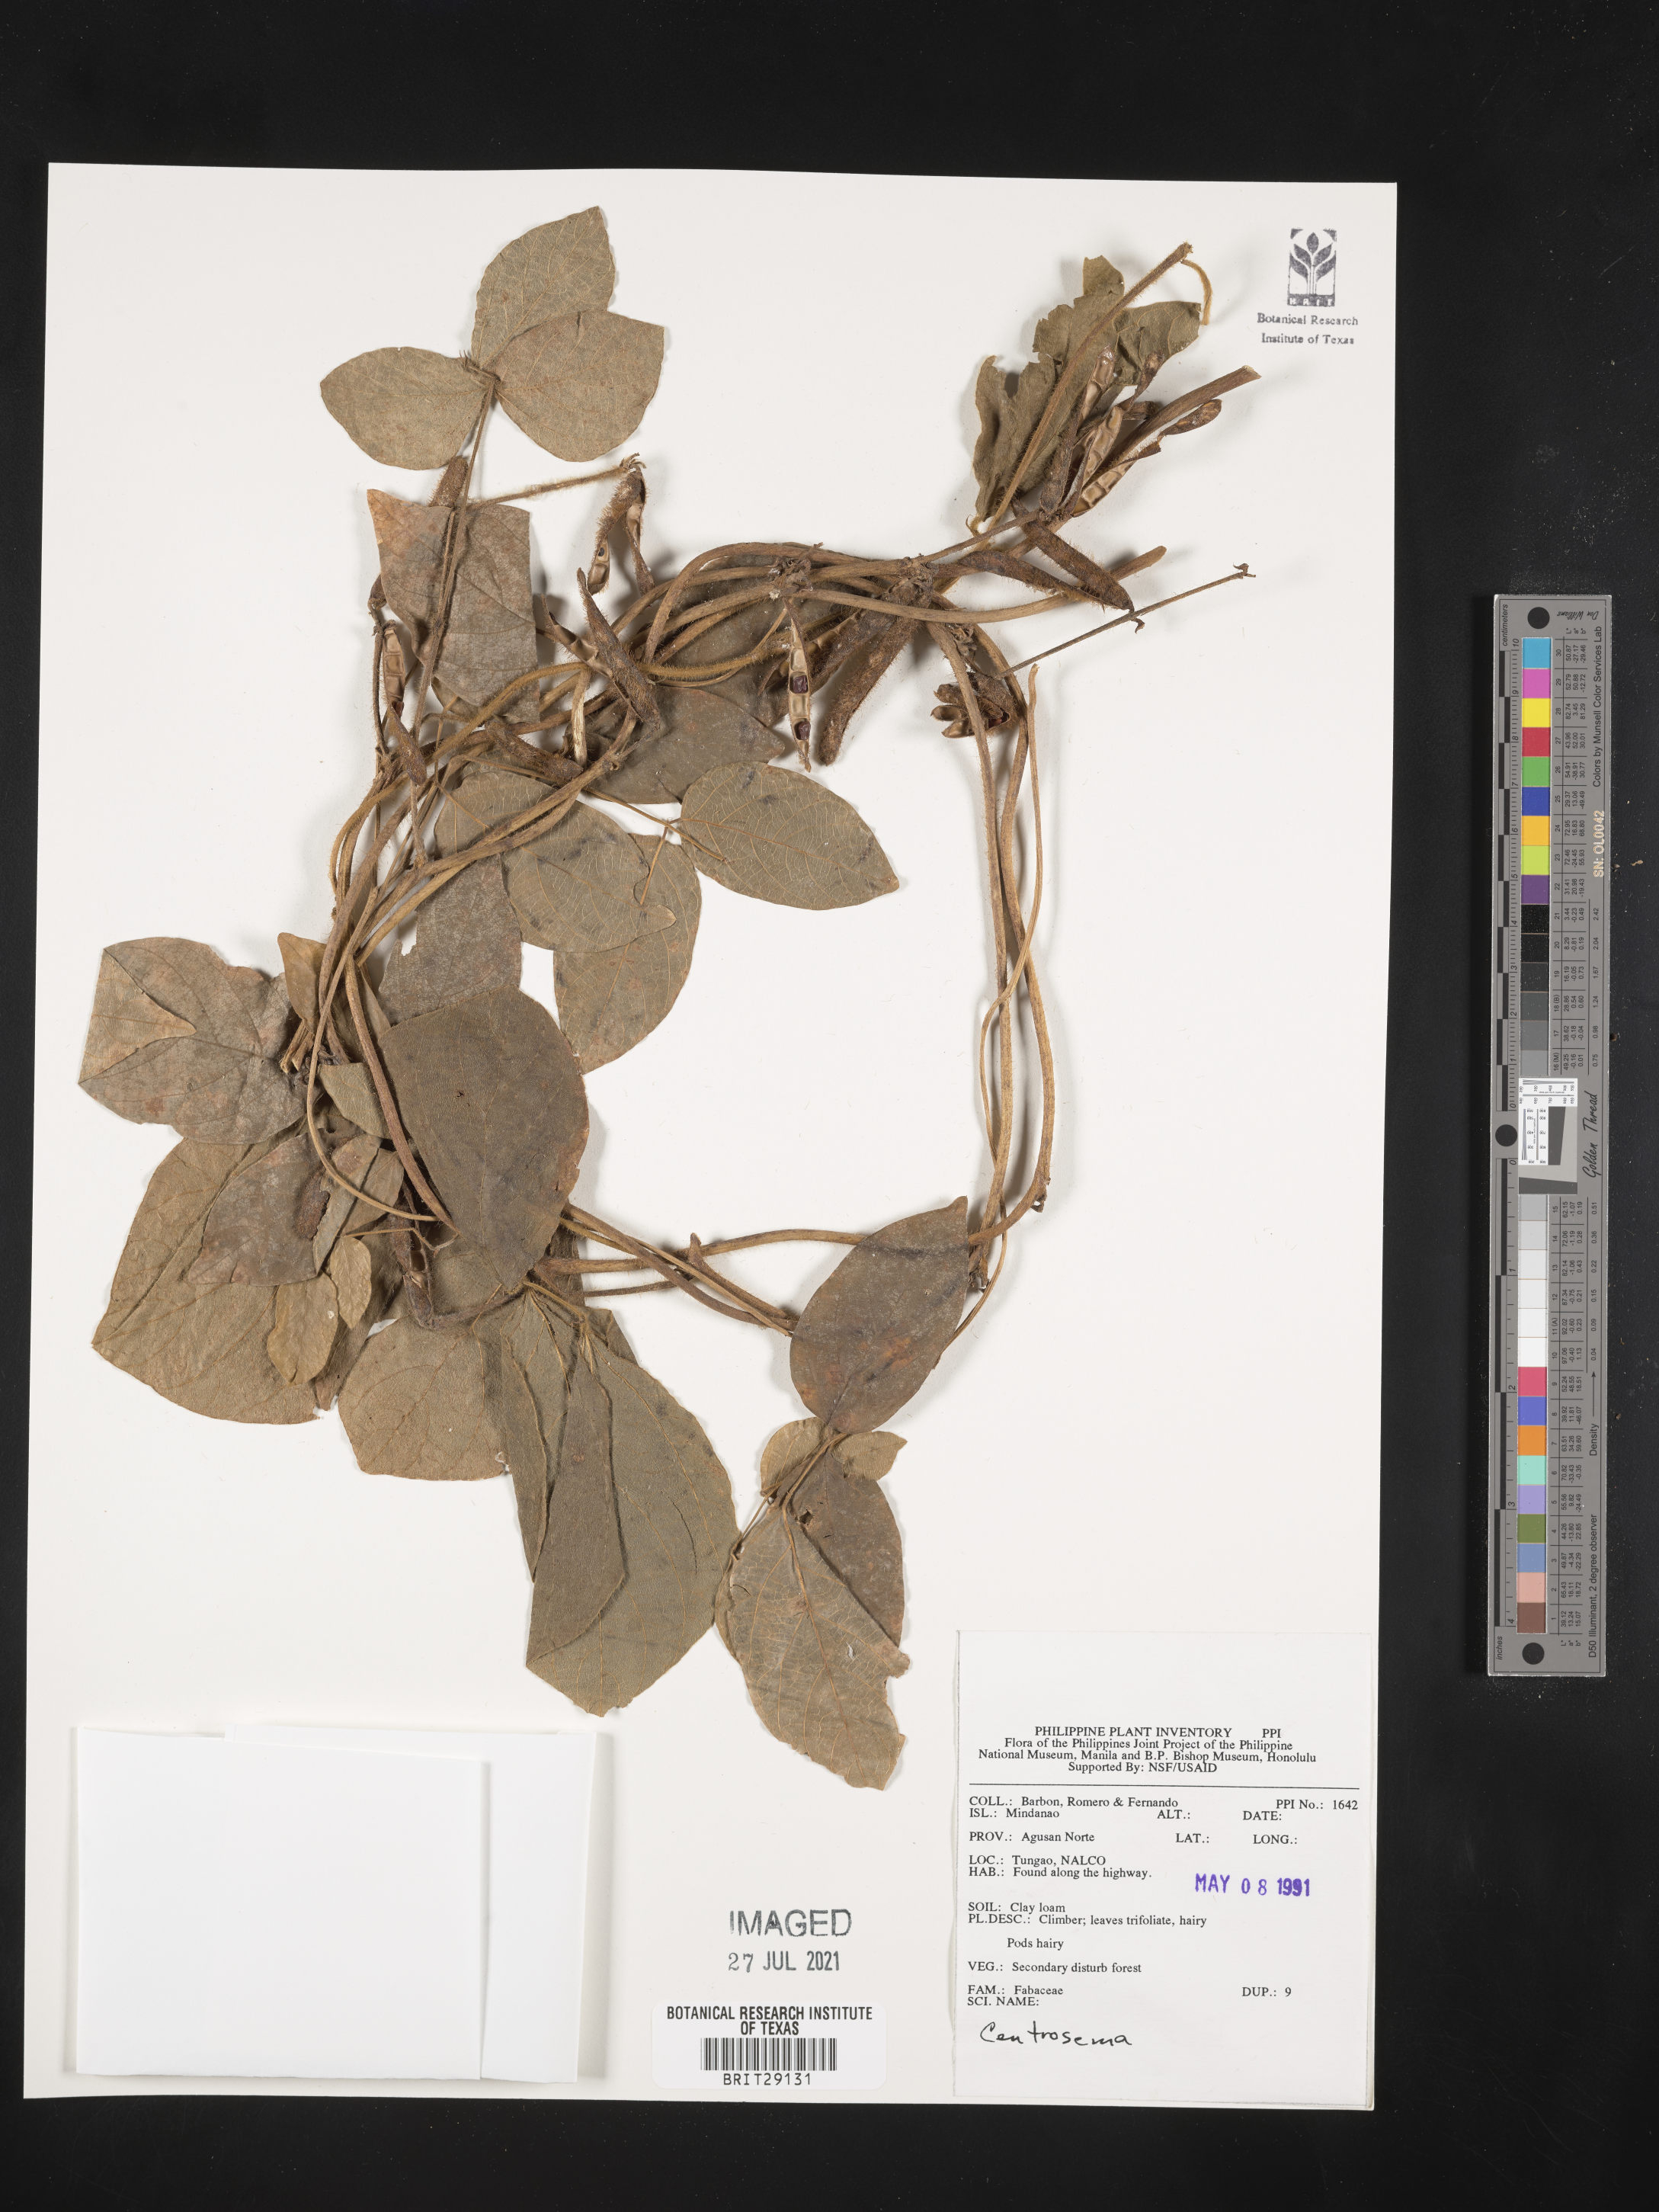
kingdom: Plantae
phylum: Tracheophyta
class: Magnoliopsida
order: Fabales
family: Fabaceae
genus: Centrosema
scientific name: Centrosema
